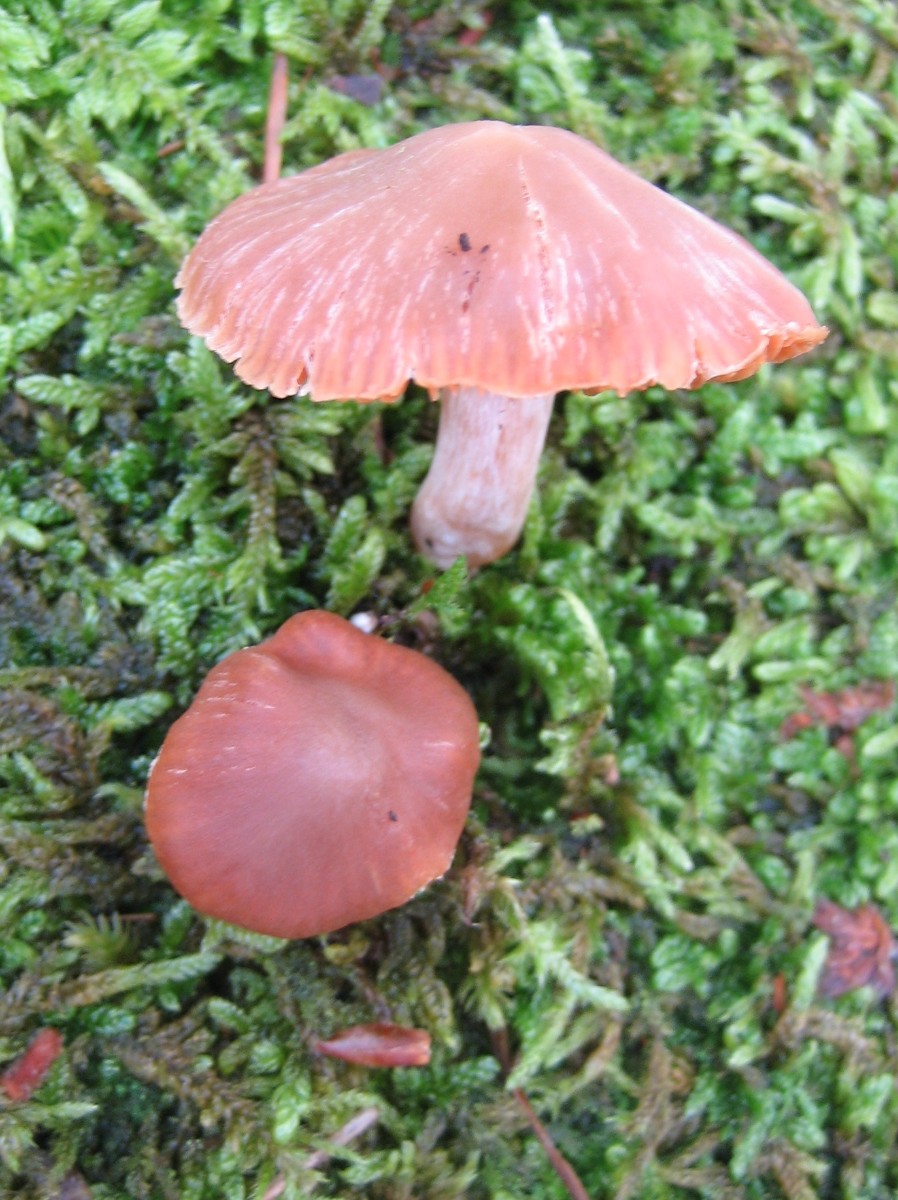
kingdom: Fungi
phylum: Basidiomycota
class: Agaricomycetes
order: Agaricales
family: Cortinariaceae
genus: Cortinarius
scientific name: Cortinarius
